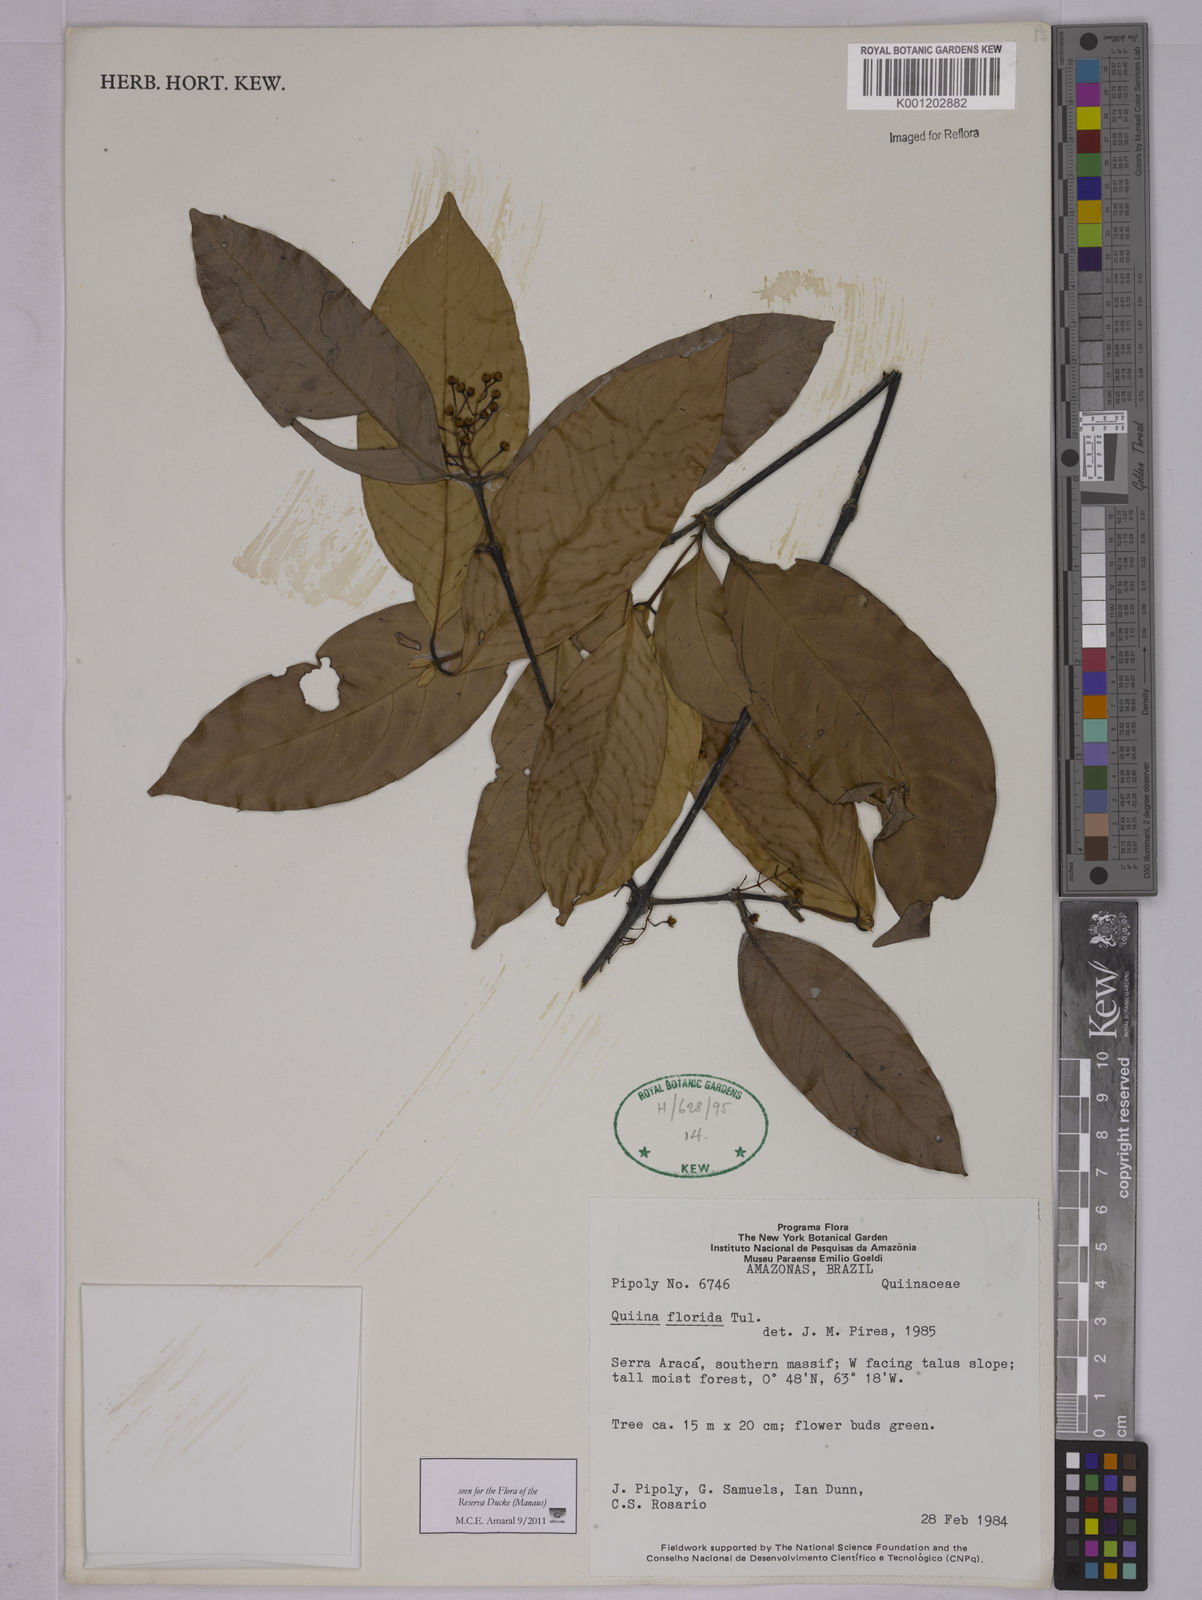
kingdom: Plantae
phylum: Tracheophyta
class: Magnoliopsida
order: Malpighiales
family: Quiinaceae
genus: Quiina
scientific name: Quiina florida
